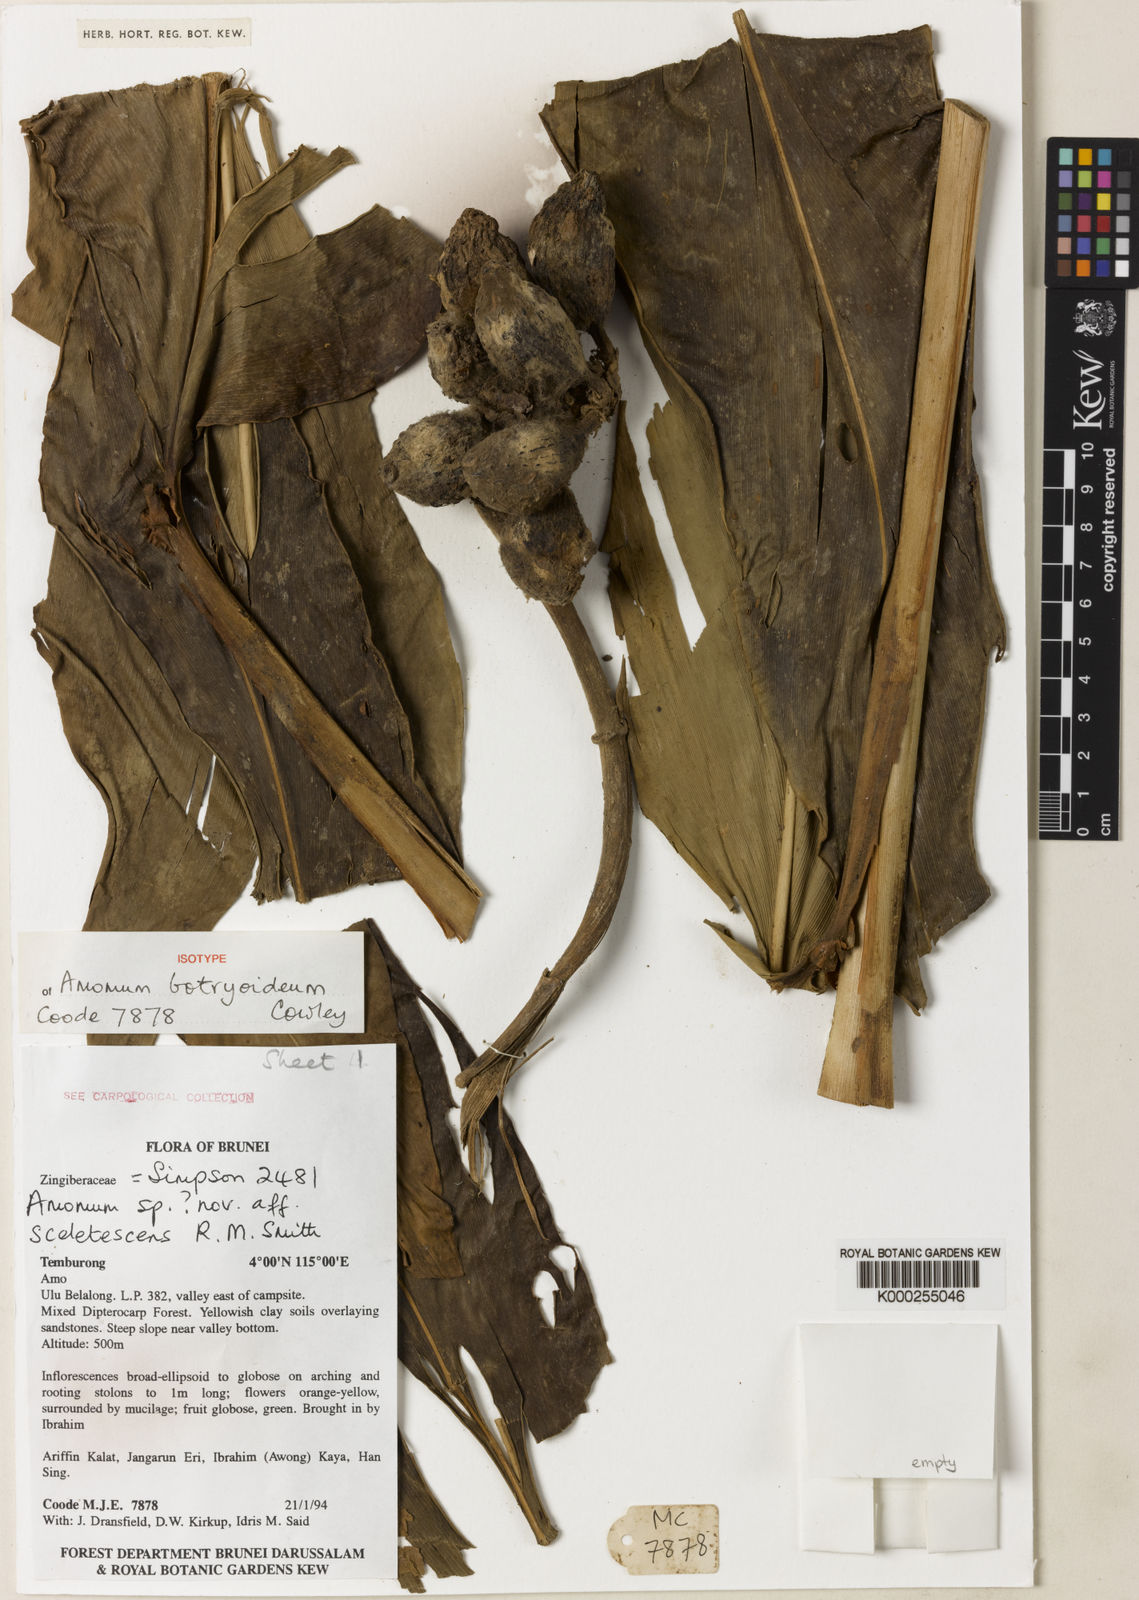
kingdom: Plantae
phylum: Tracheophyta
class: Liliopsida
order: Zingiberales
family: Zingiberaceae
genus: Meistera
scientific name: Meistera botryoidea
